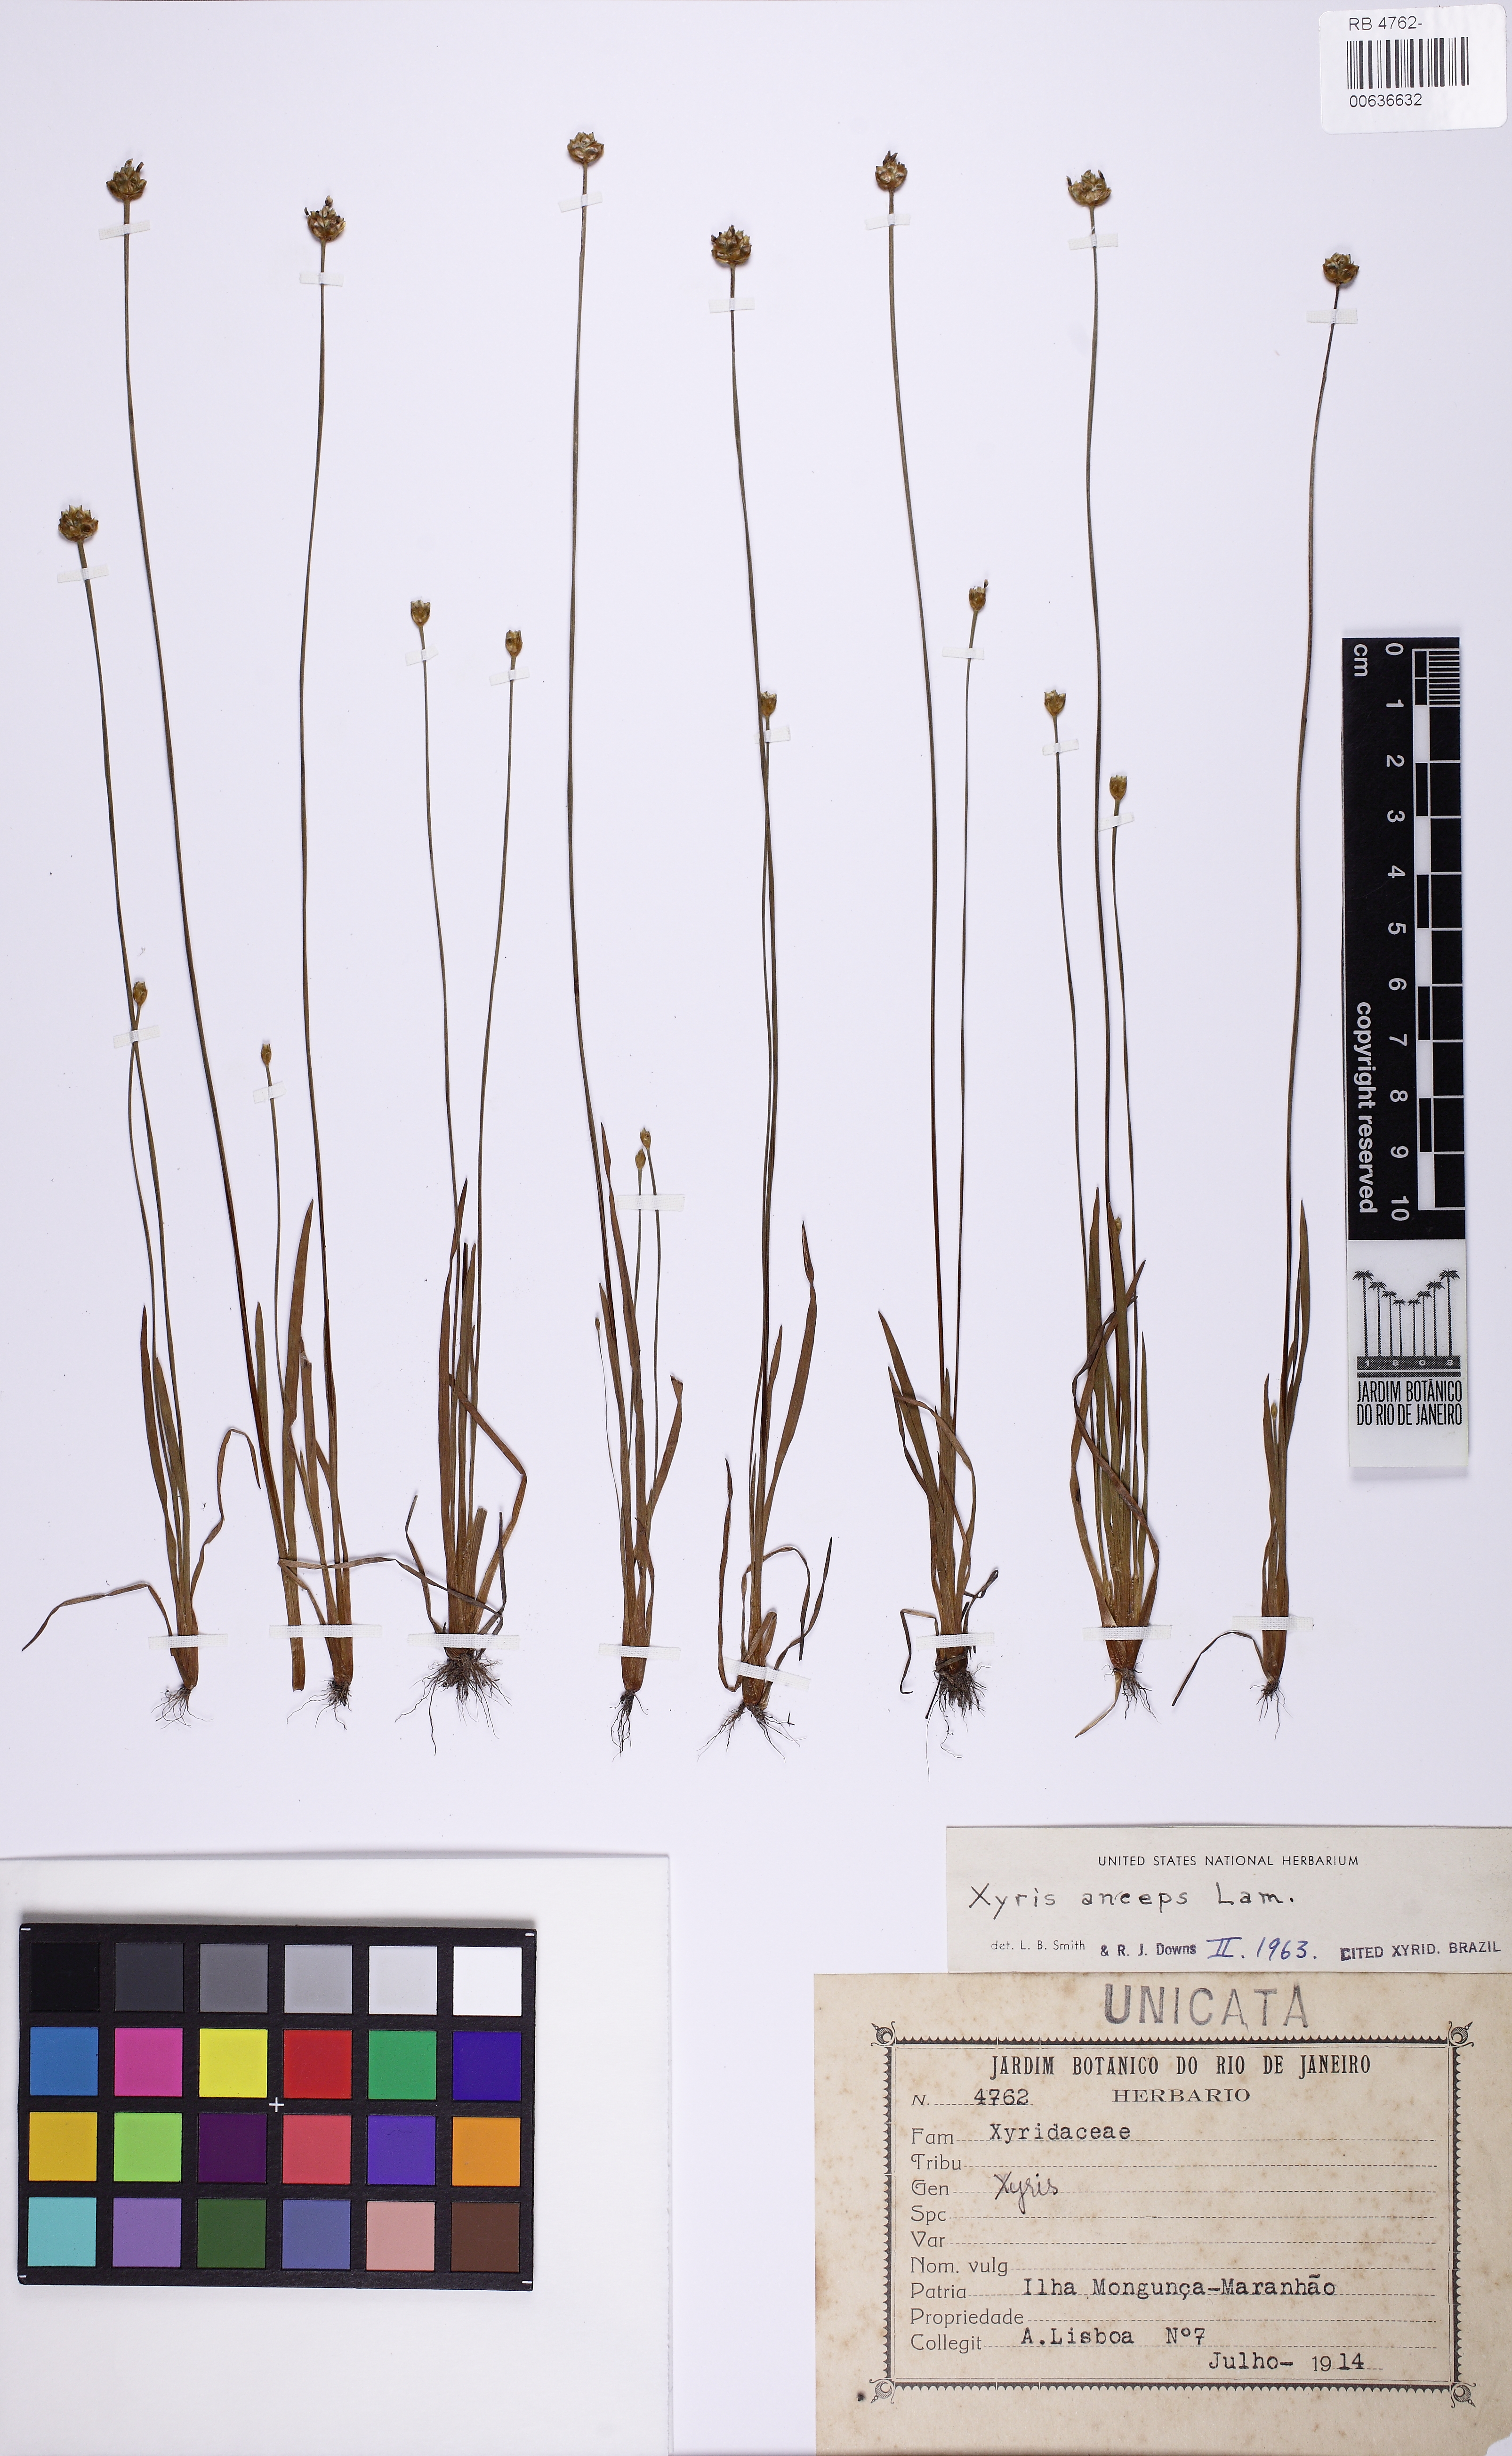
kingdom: Plantae
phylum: Tracheophyta
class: Liliopsida
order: Poales
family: Xyridaceae
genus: Xyris
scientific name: Xyris anceps
